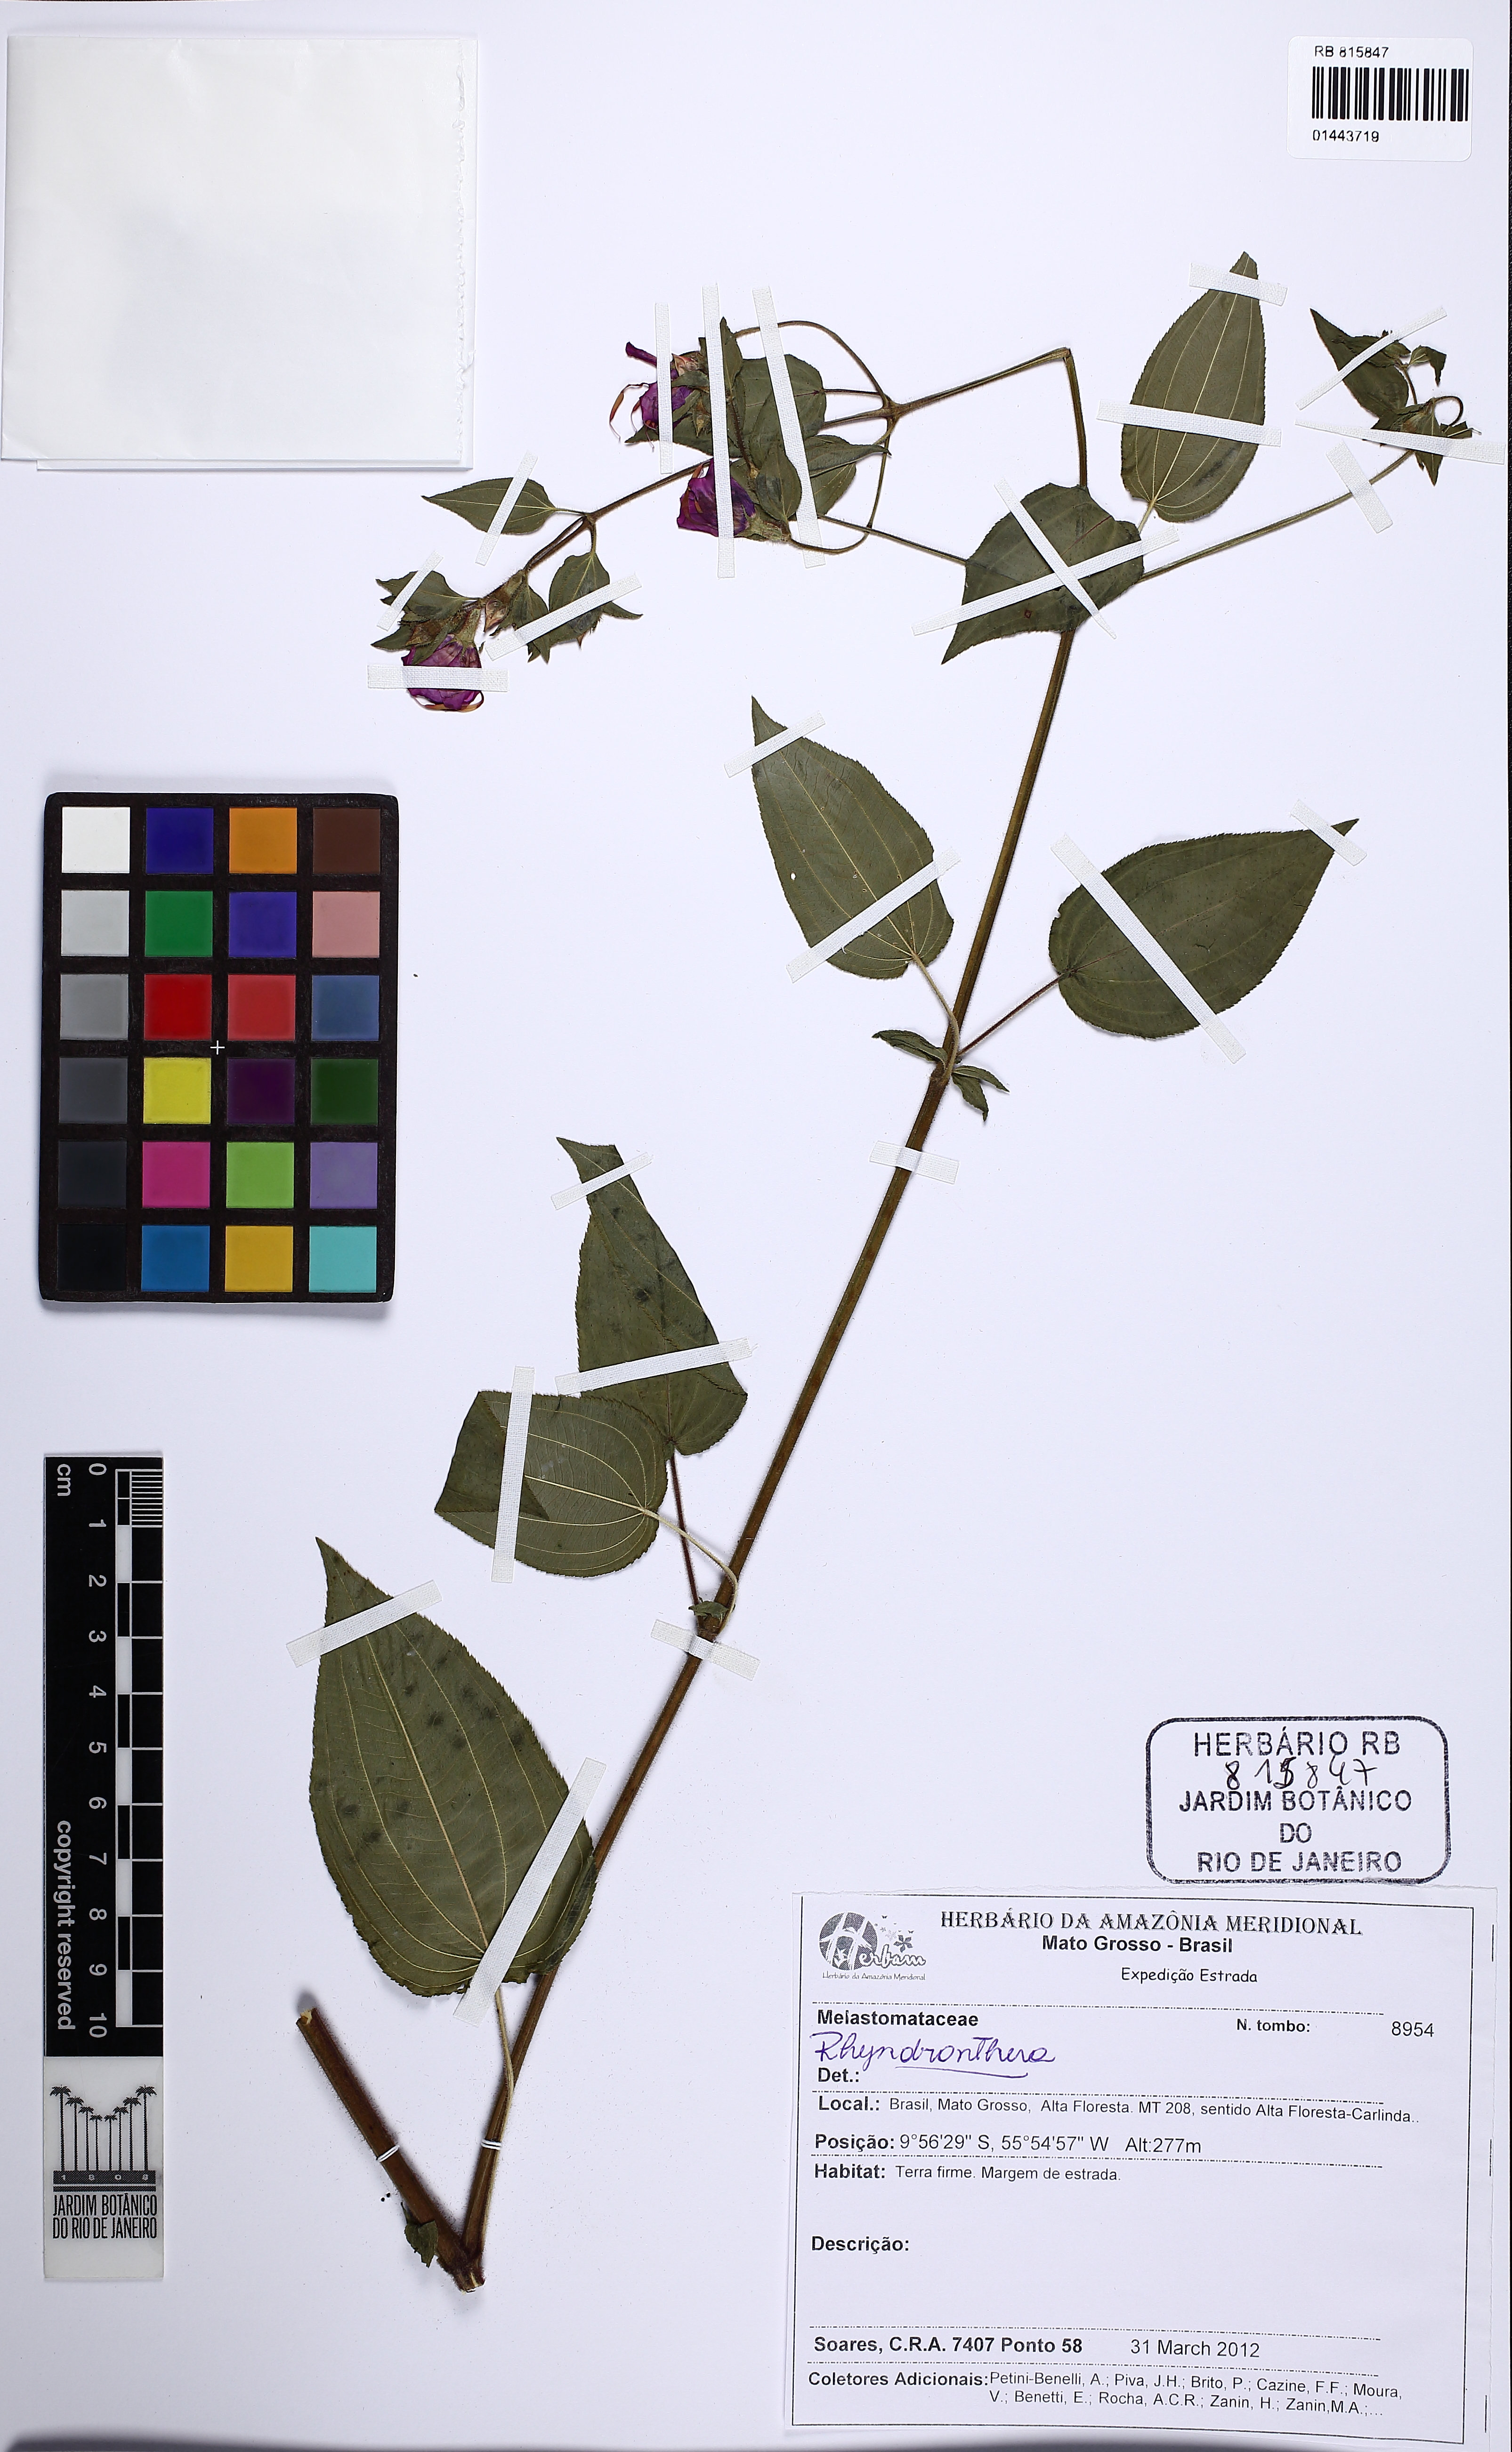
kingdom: Plantae
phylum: Tracheophyta
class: Magnoliopsida
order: Myrtales
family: Melastomataceae
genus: Rhynchanthera
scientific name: Rhynchanthera
